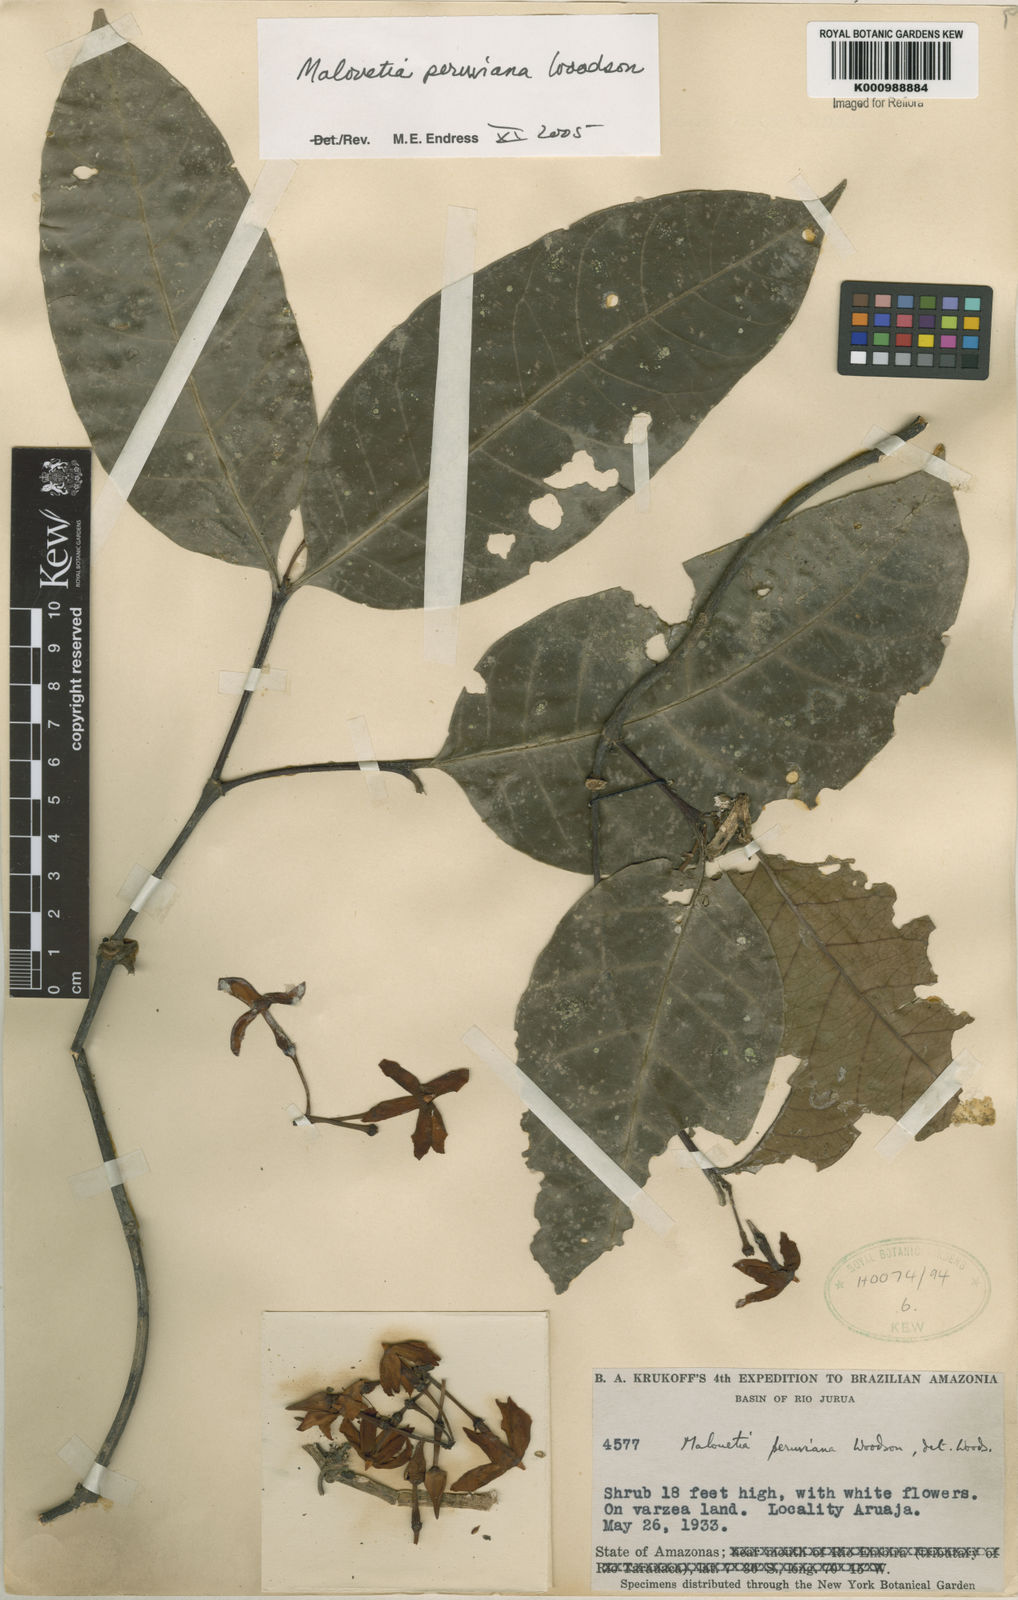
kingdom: Plantae
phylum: Tracheophyta
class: Magnoliopsida
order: Gentianales
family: Apocynaceae
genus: Malouetia
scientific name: Malouetia tamaquarina
